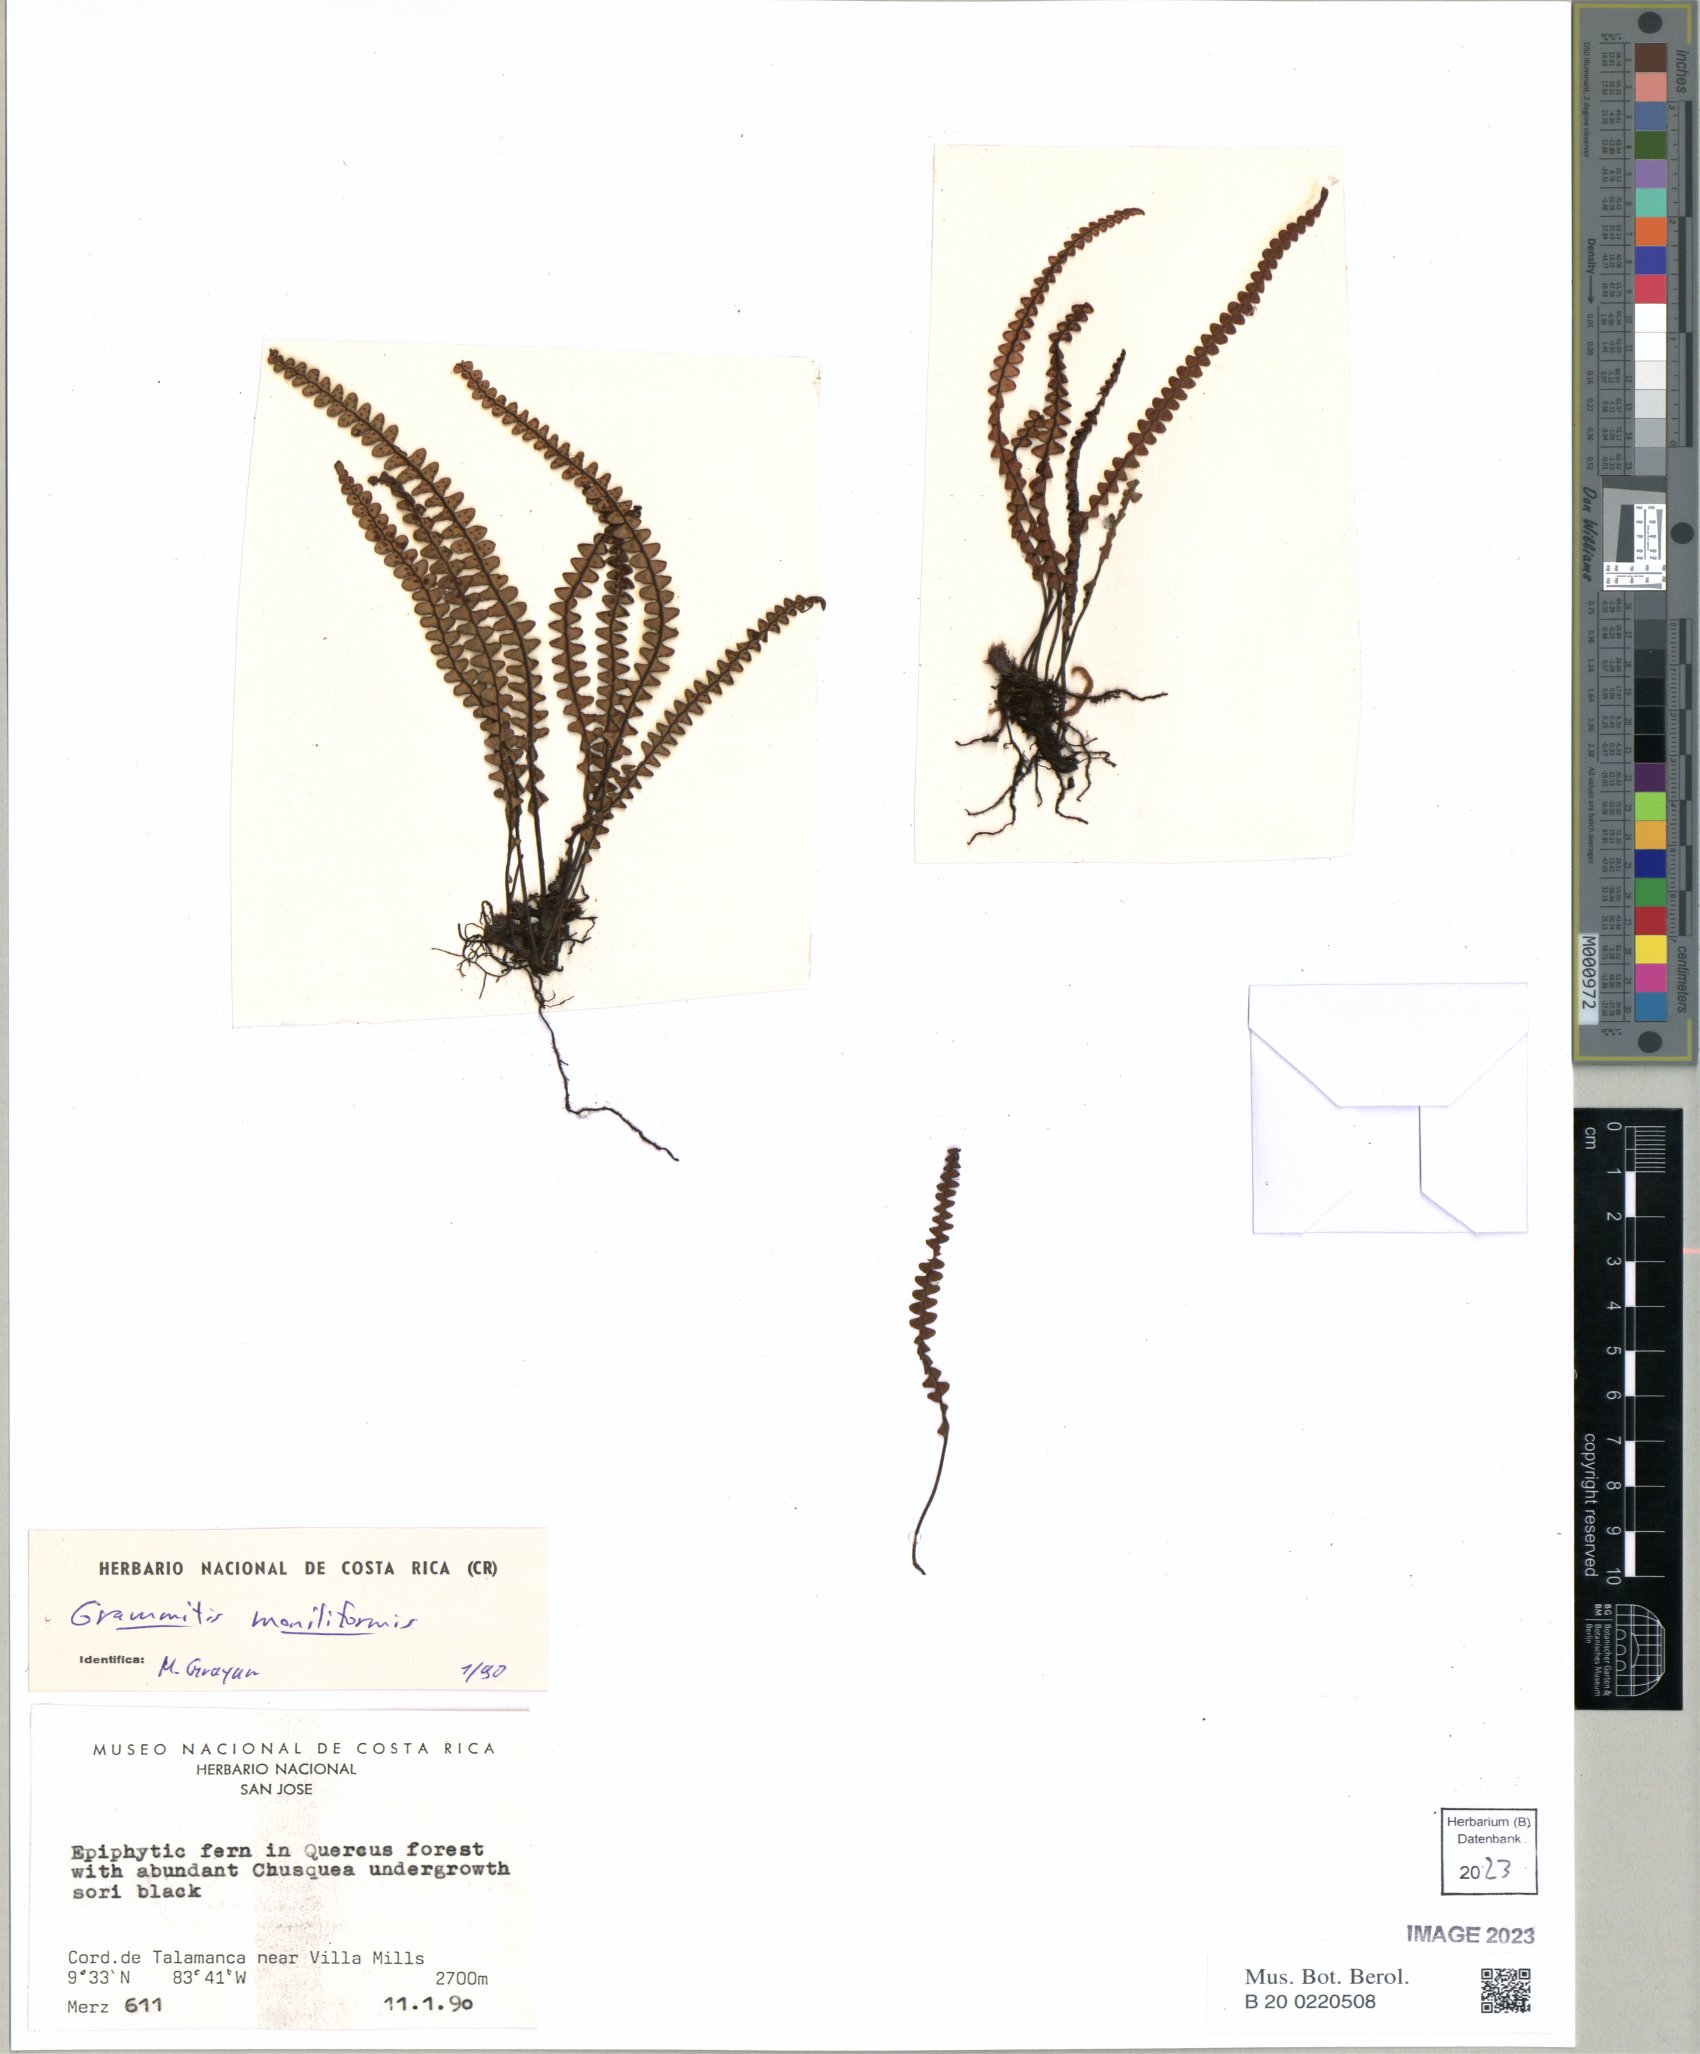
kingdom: Plantae
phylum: Tracheophyta
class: Polypodiopsida
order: Polypodiales
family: Polypodiaceae
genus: Melpomene
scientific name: Melpomene moniliformis
